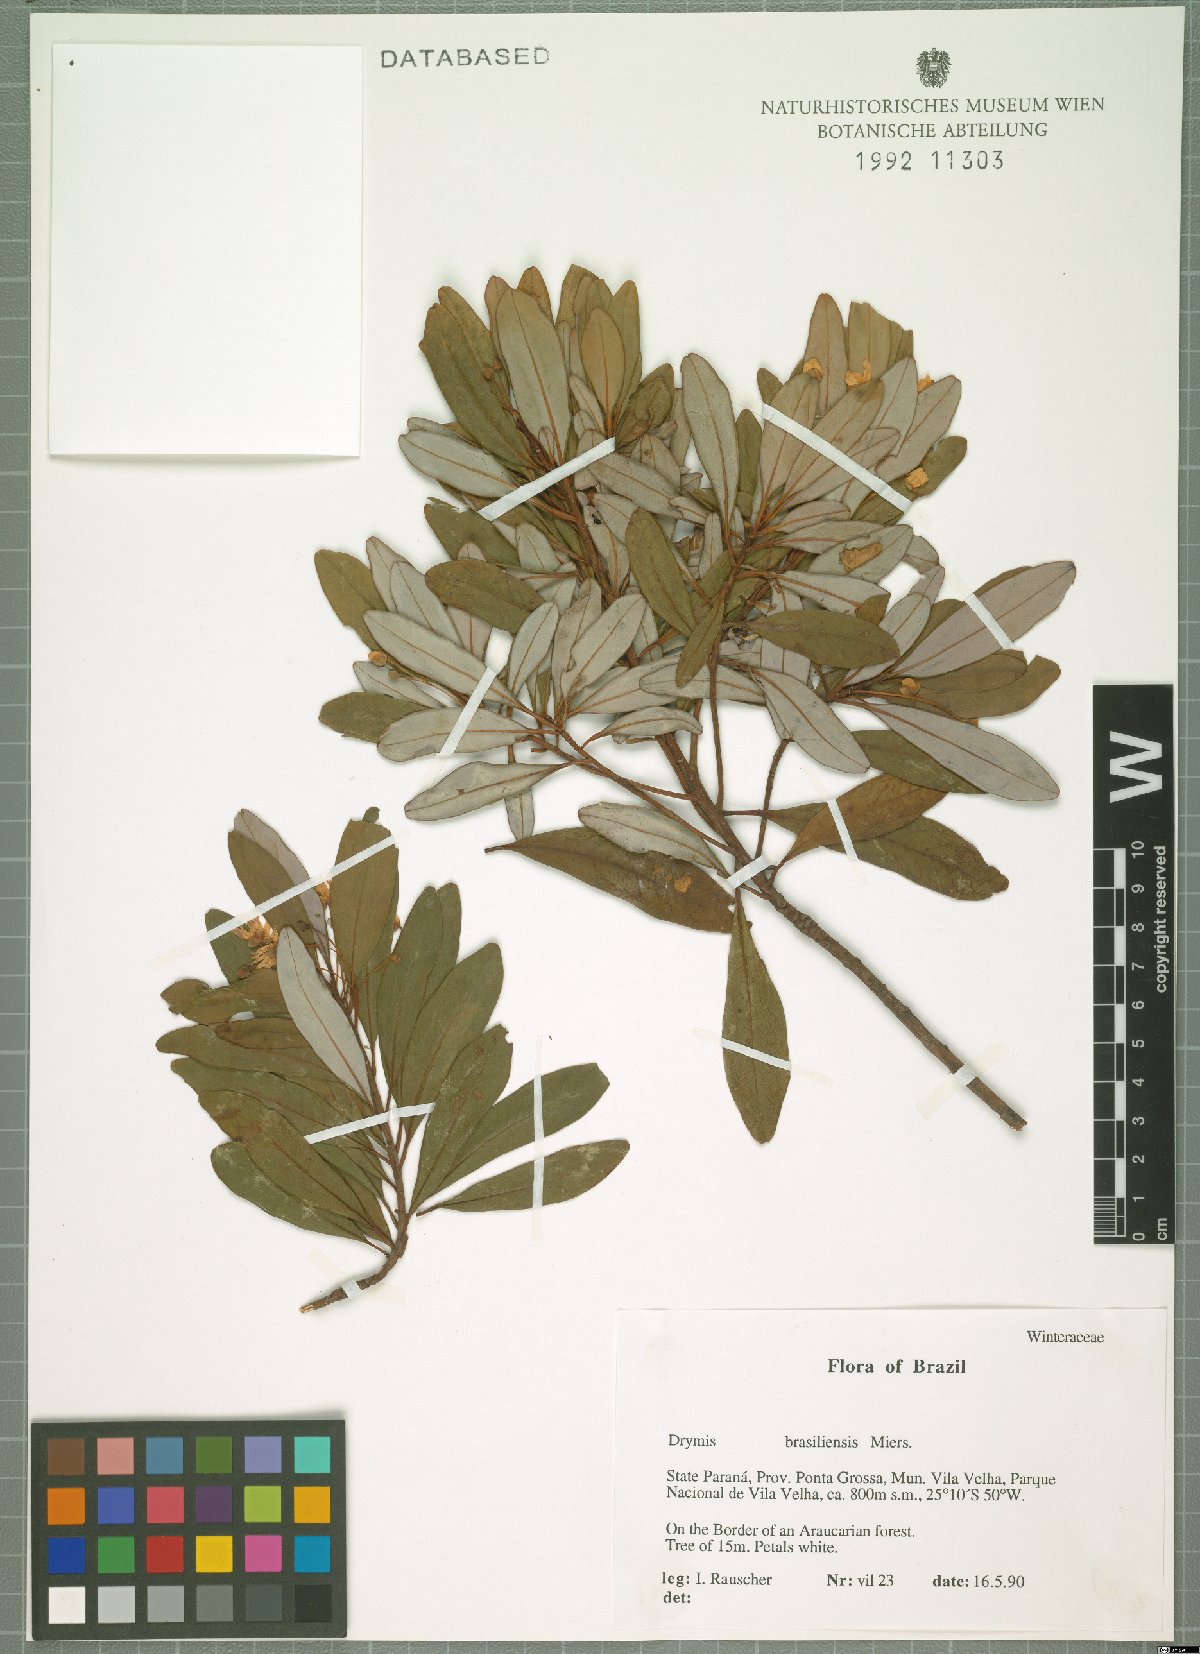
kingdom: Plantae
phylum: Tracheophyta
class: Magnoliopsida
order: Canellales
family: Winteraceae
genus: Drimys
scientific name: Drimys brasiliensis
